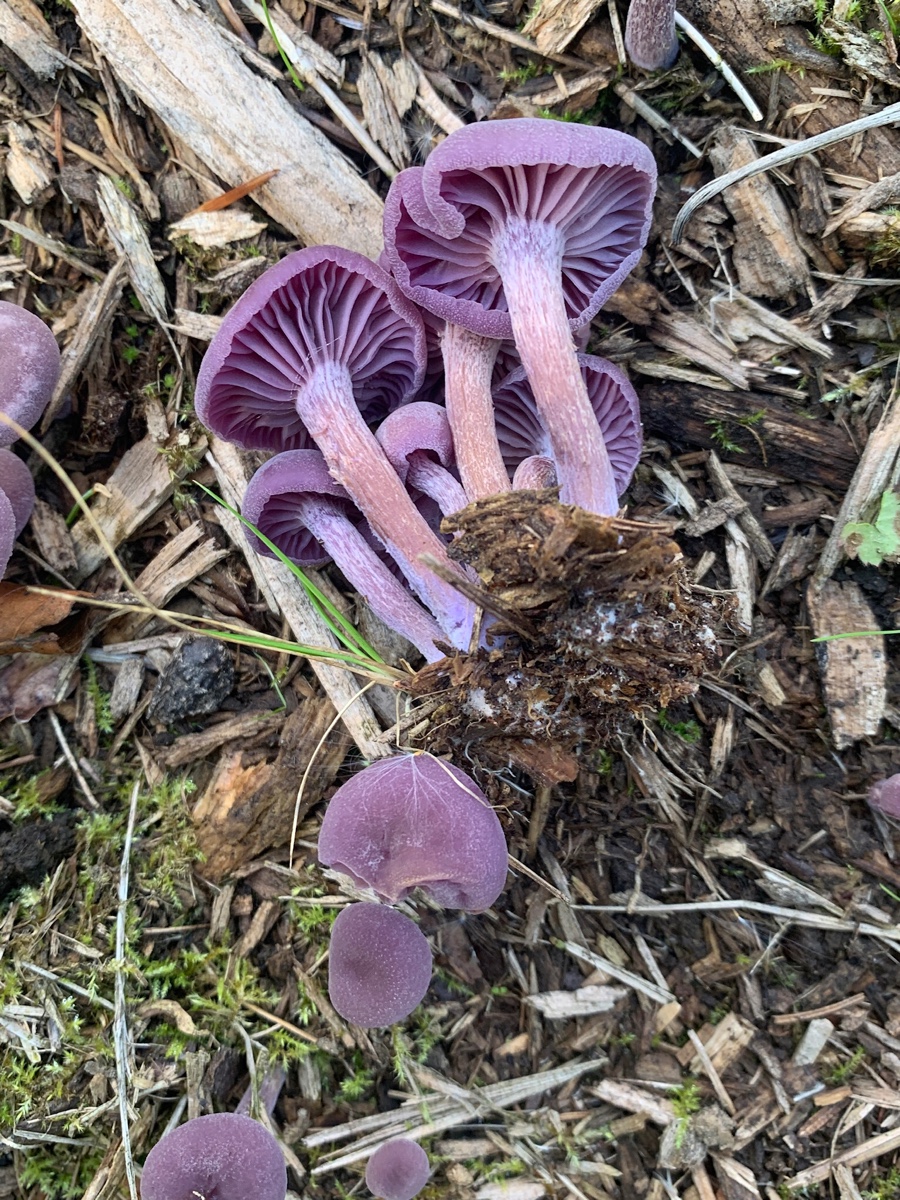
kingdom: Fungi
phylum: Basidiomycota
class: Agaricomycetes
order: Agaricales
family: Hydnangiaceae
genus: Laccaria
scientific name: Laccaria amethystina
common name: violet ametysthat
